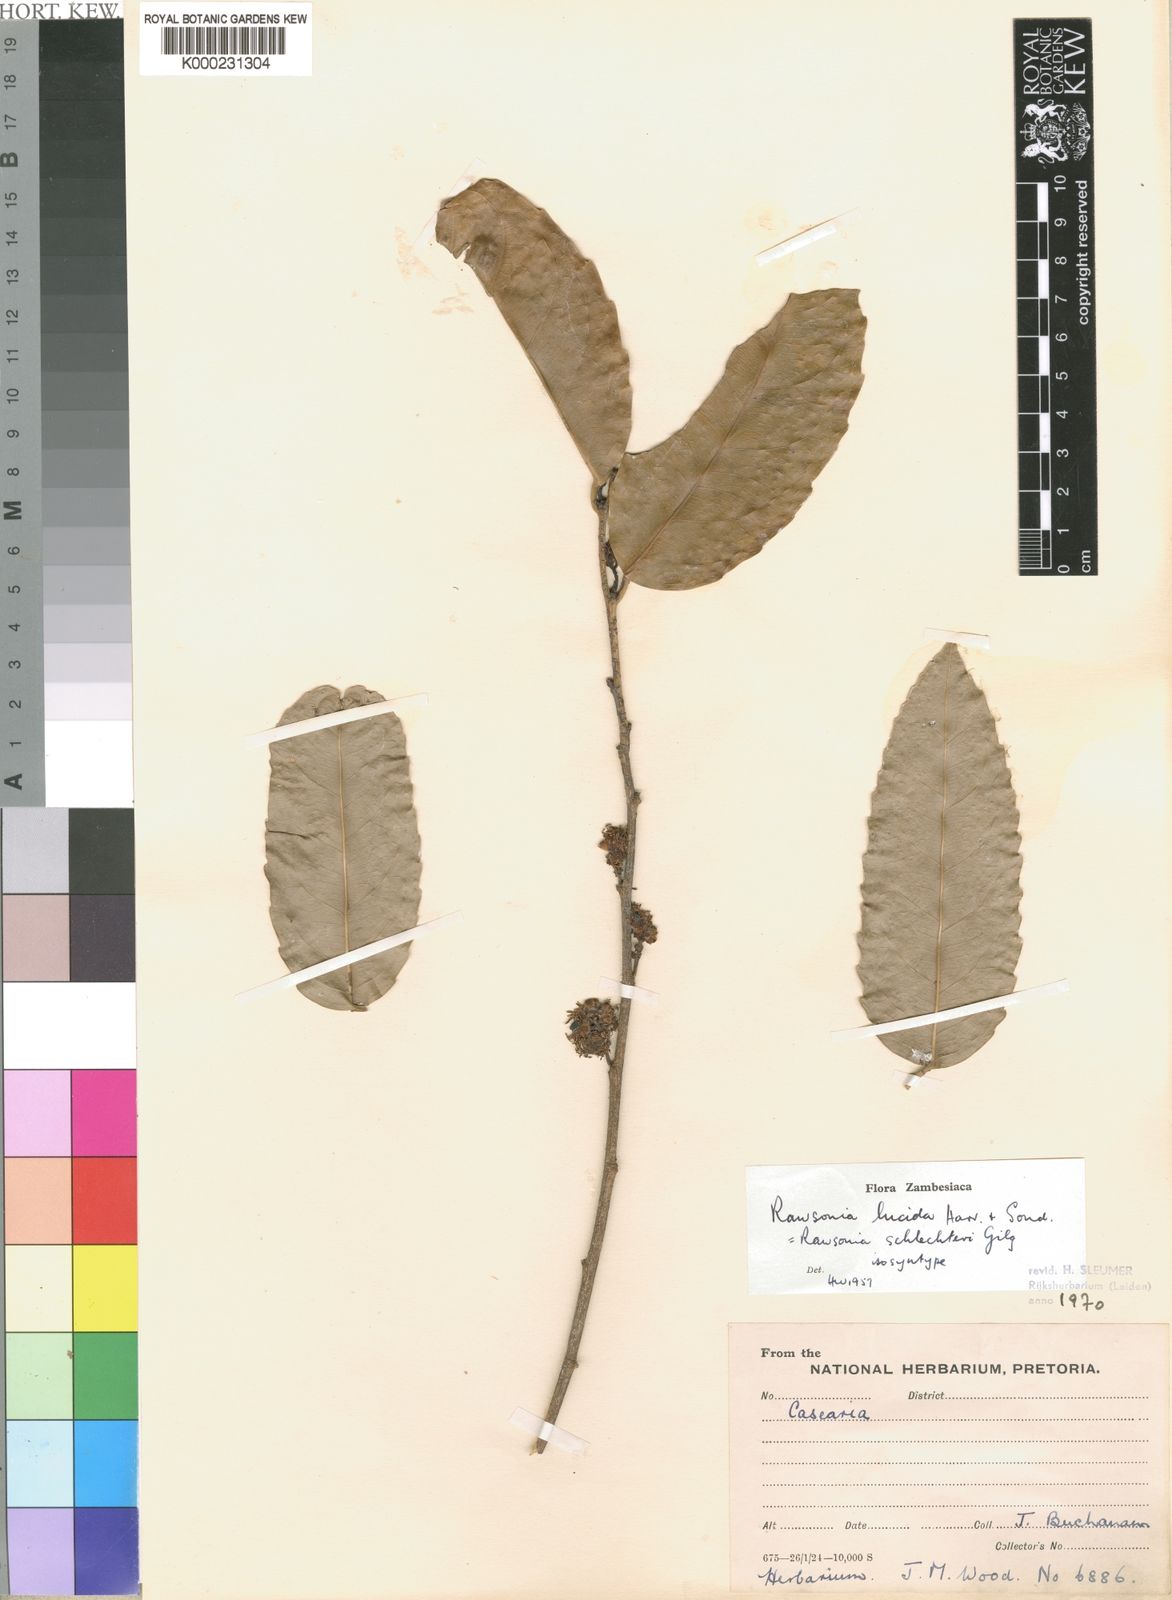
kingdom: Plantae
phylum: Tracheophyta
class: Magnoliopsida
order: Malpighiales
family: Achariaceae
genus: Rawsonia
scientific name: Rawsonia lucida
